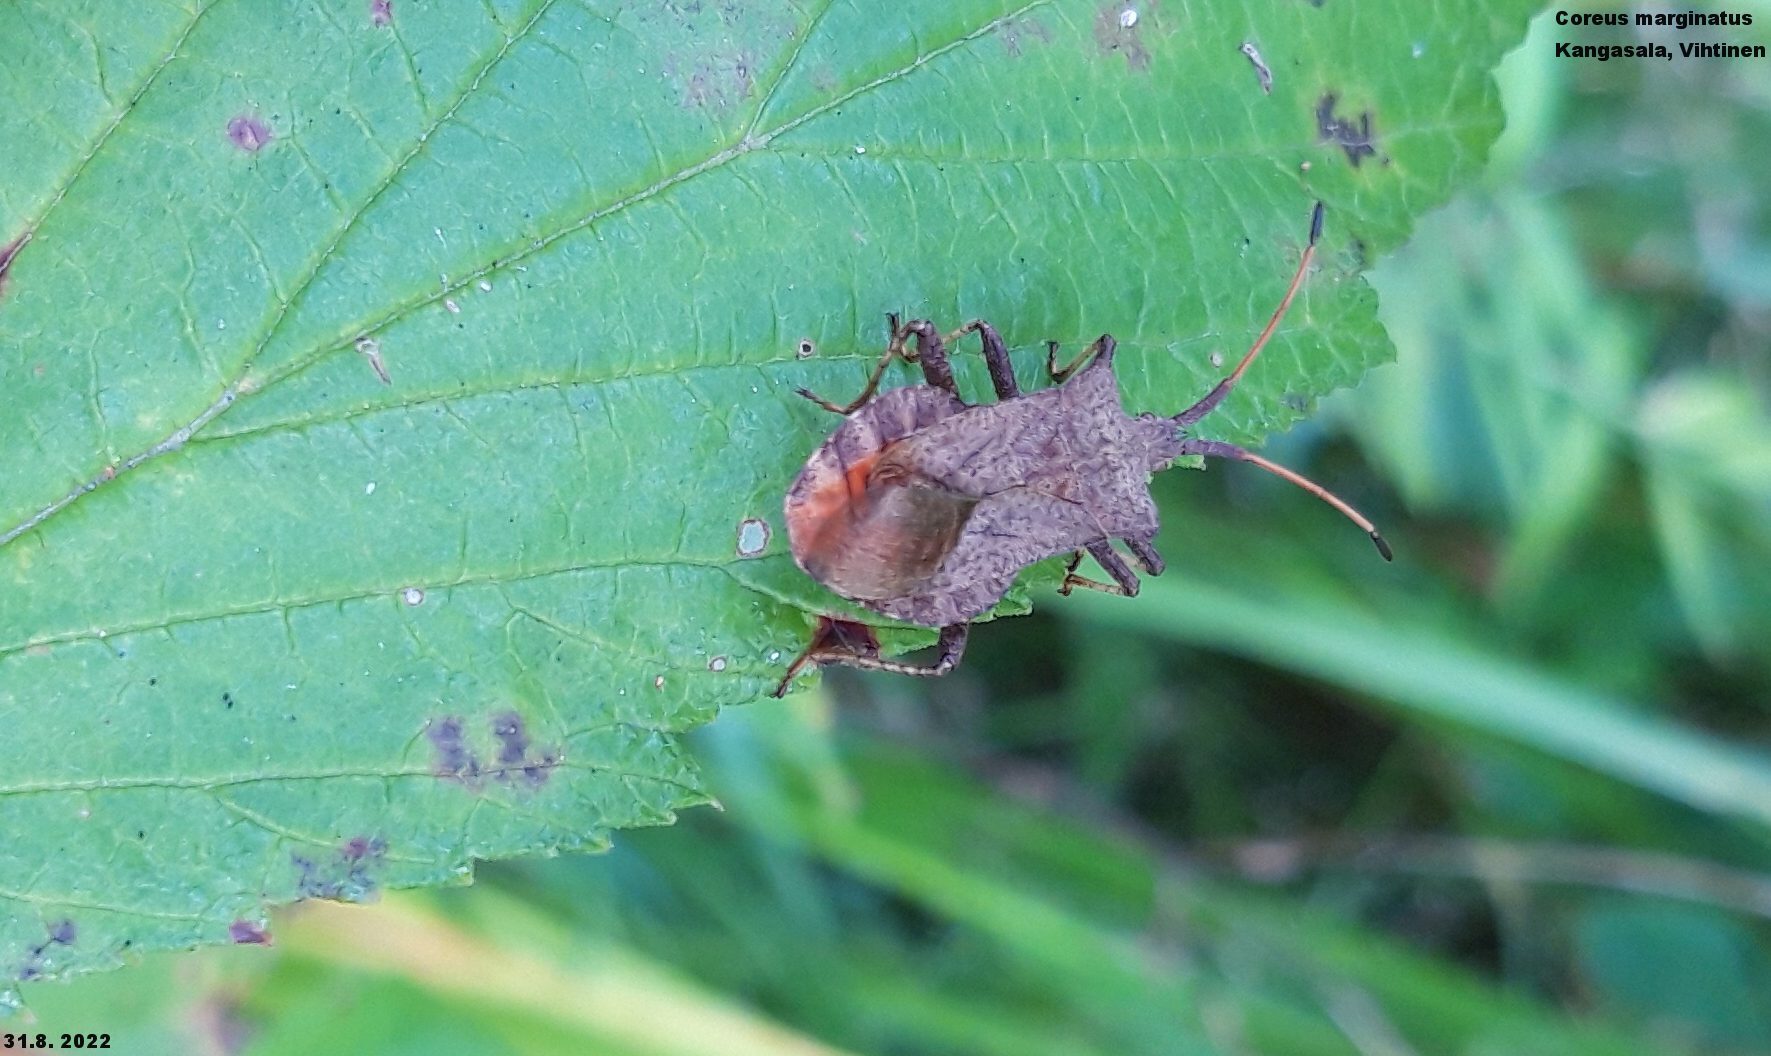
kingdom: Animalia
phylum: Arthropoda
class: Insecta
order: Hemiptera
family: Coreidae
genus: Coreus
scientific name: Coreus marginatus
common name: Dock bug
